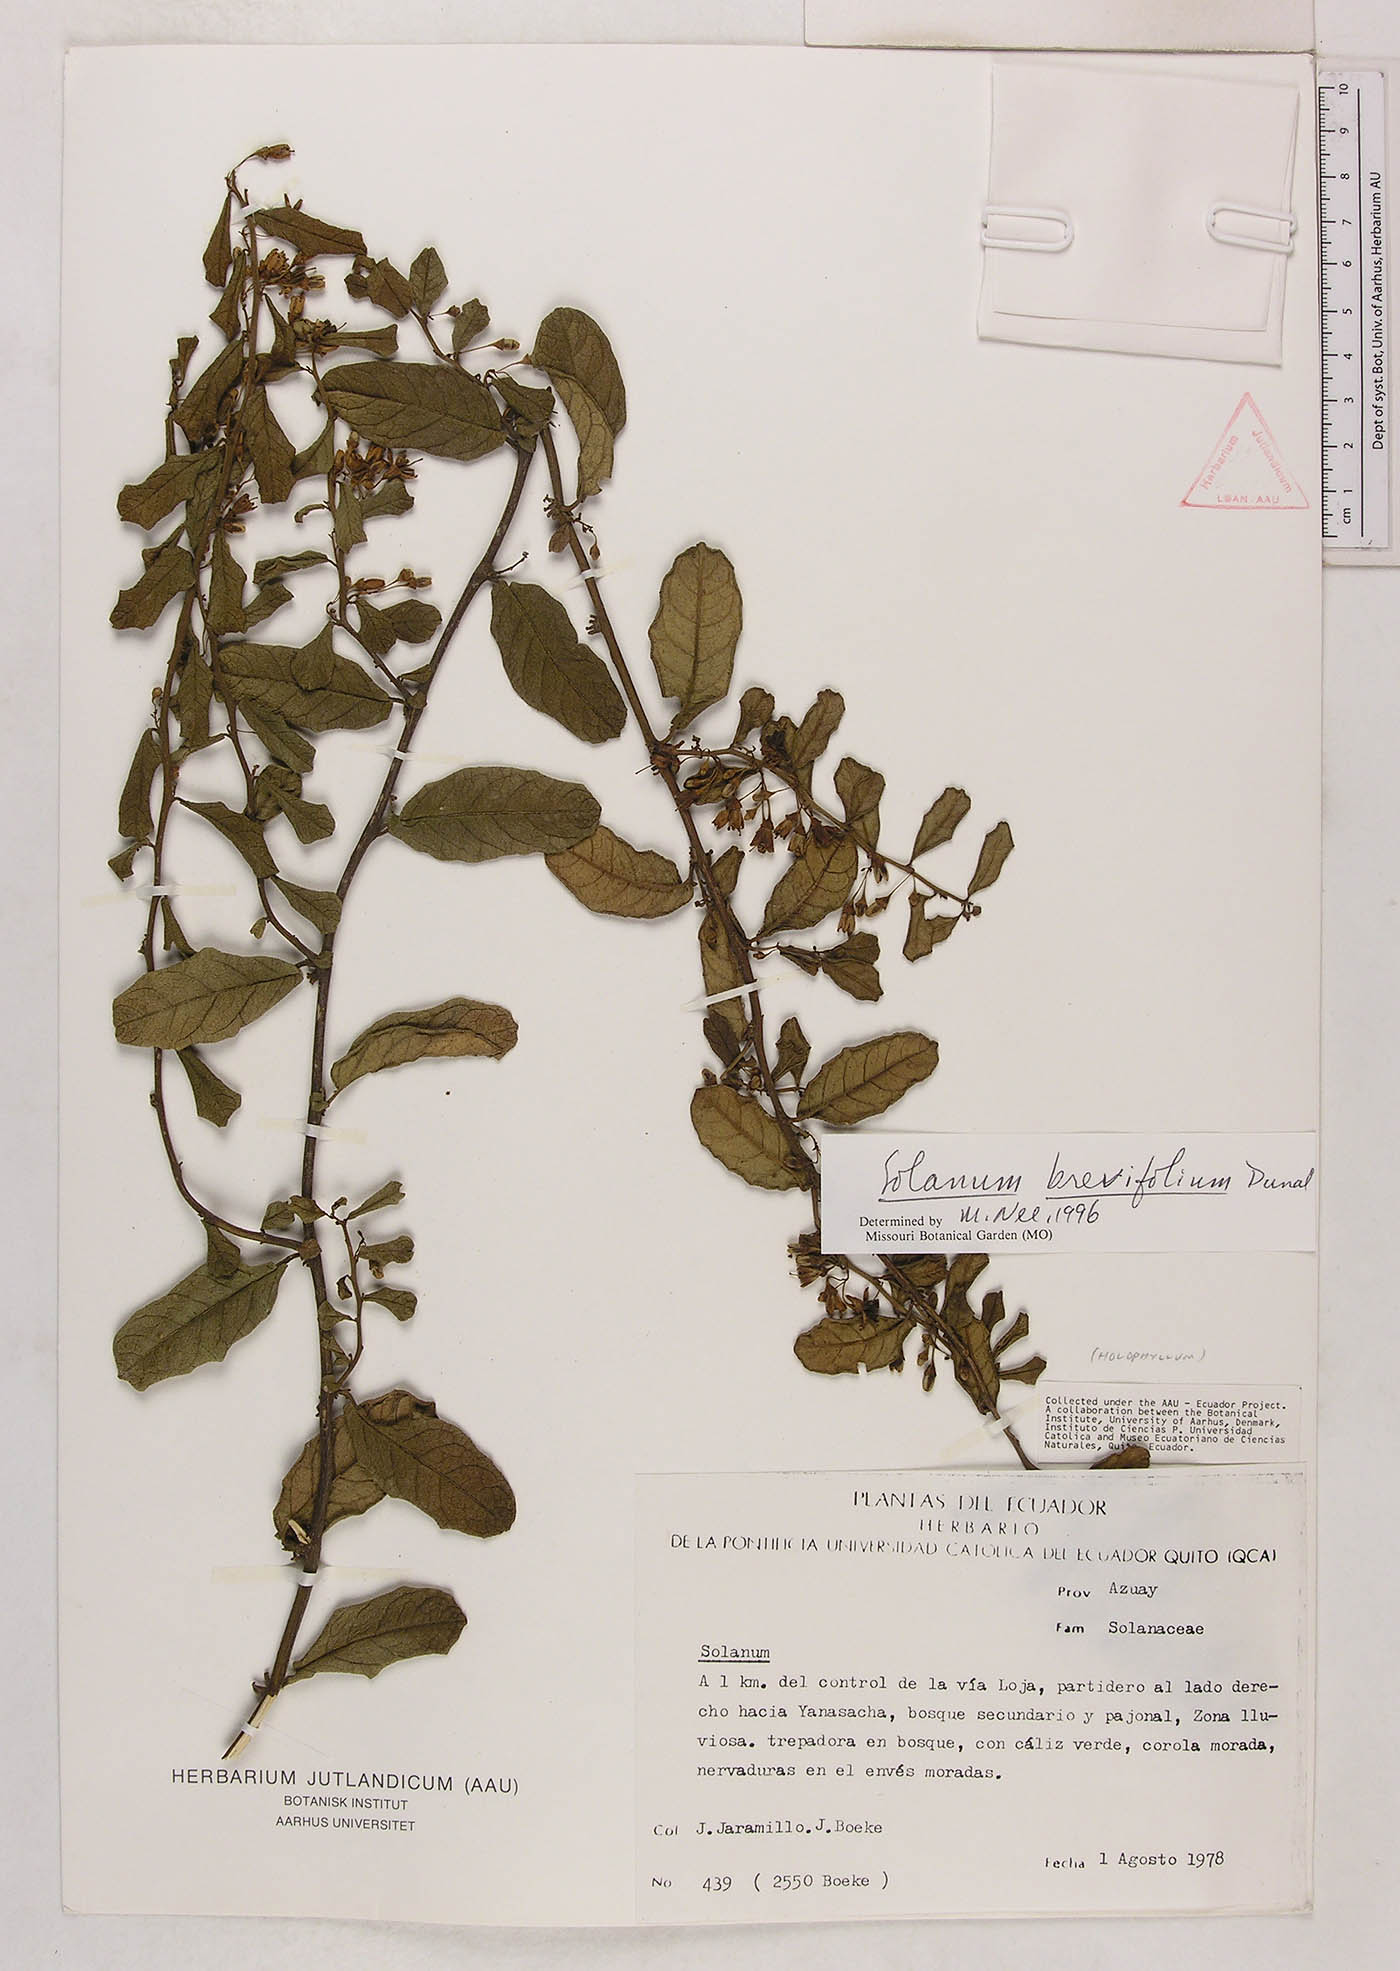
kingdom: Plantae
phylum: Tracheophyta
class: Magnoliopsida
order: Solanales
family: Solanaceae
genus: Solanum
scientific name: Solanum brevifolium
